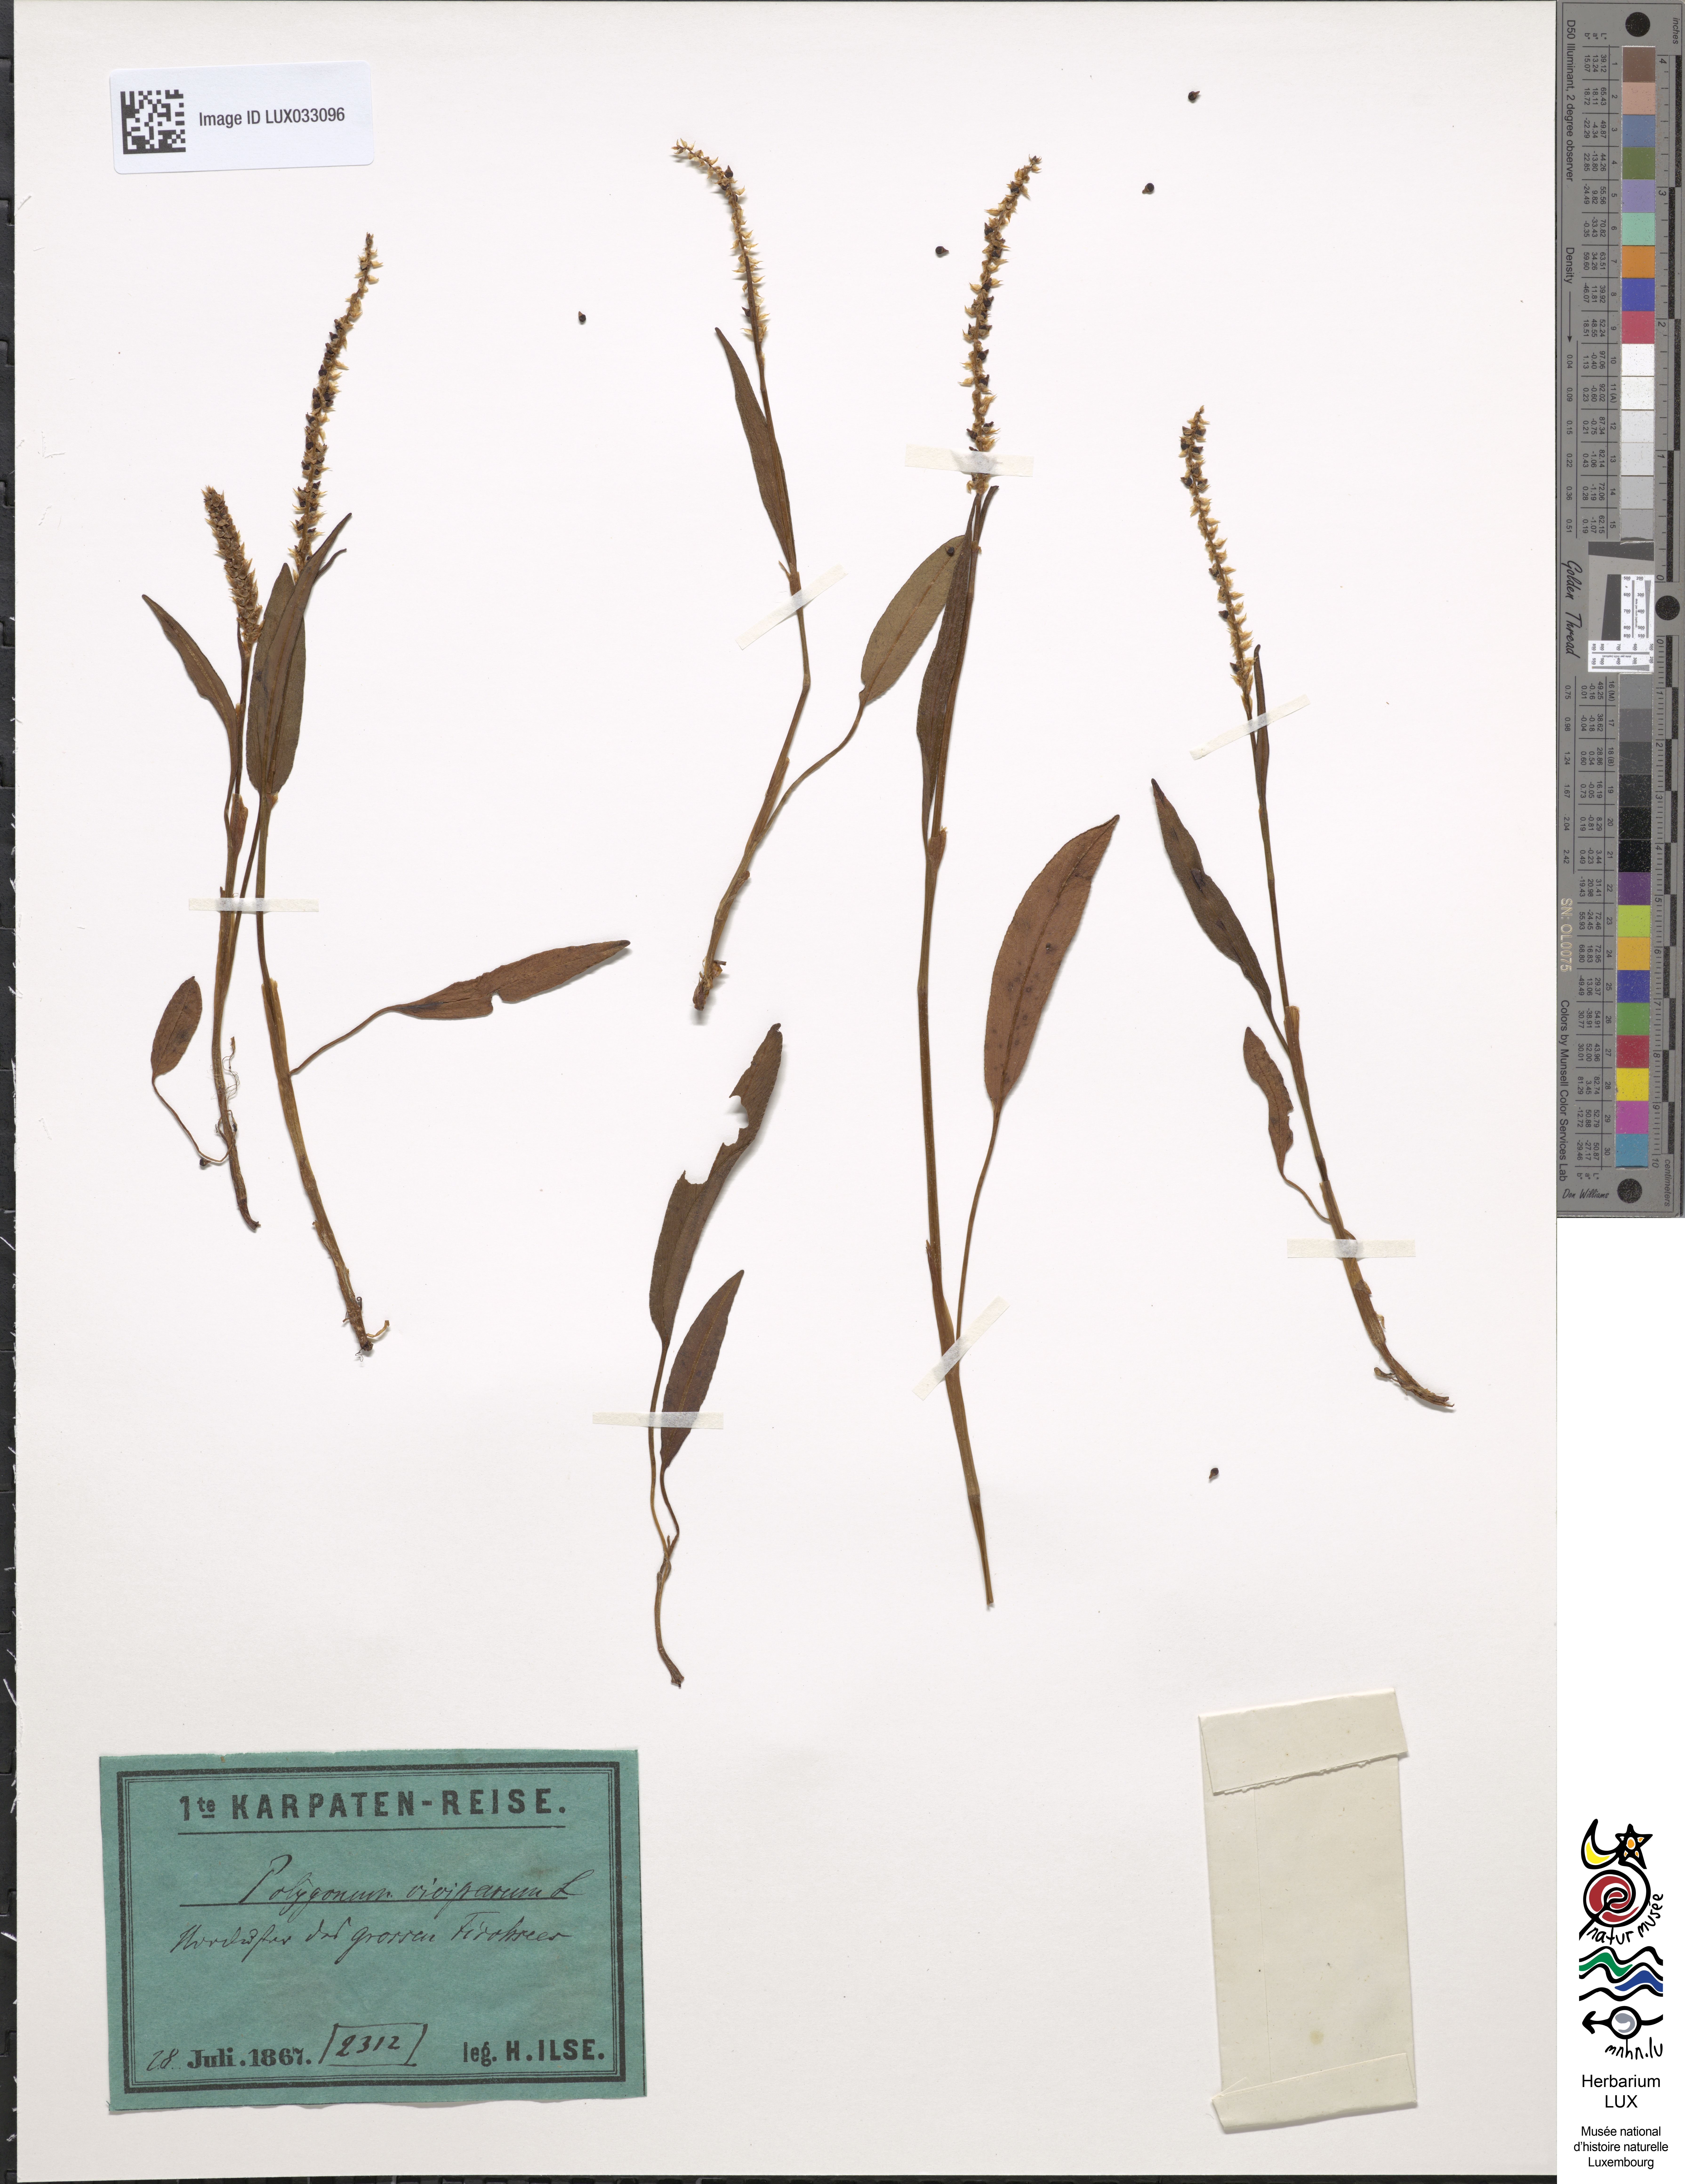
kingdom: Plantae
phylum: Tracheophyta
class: Magnoliopsida
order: Caryophyllales
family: Polygonaceae
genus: Bistorta
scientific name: Bistorta vivipara
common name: Alpine bistort
